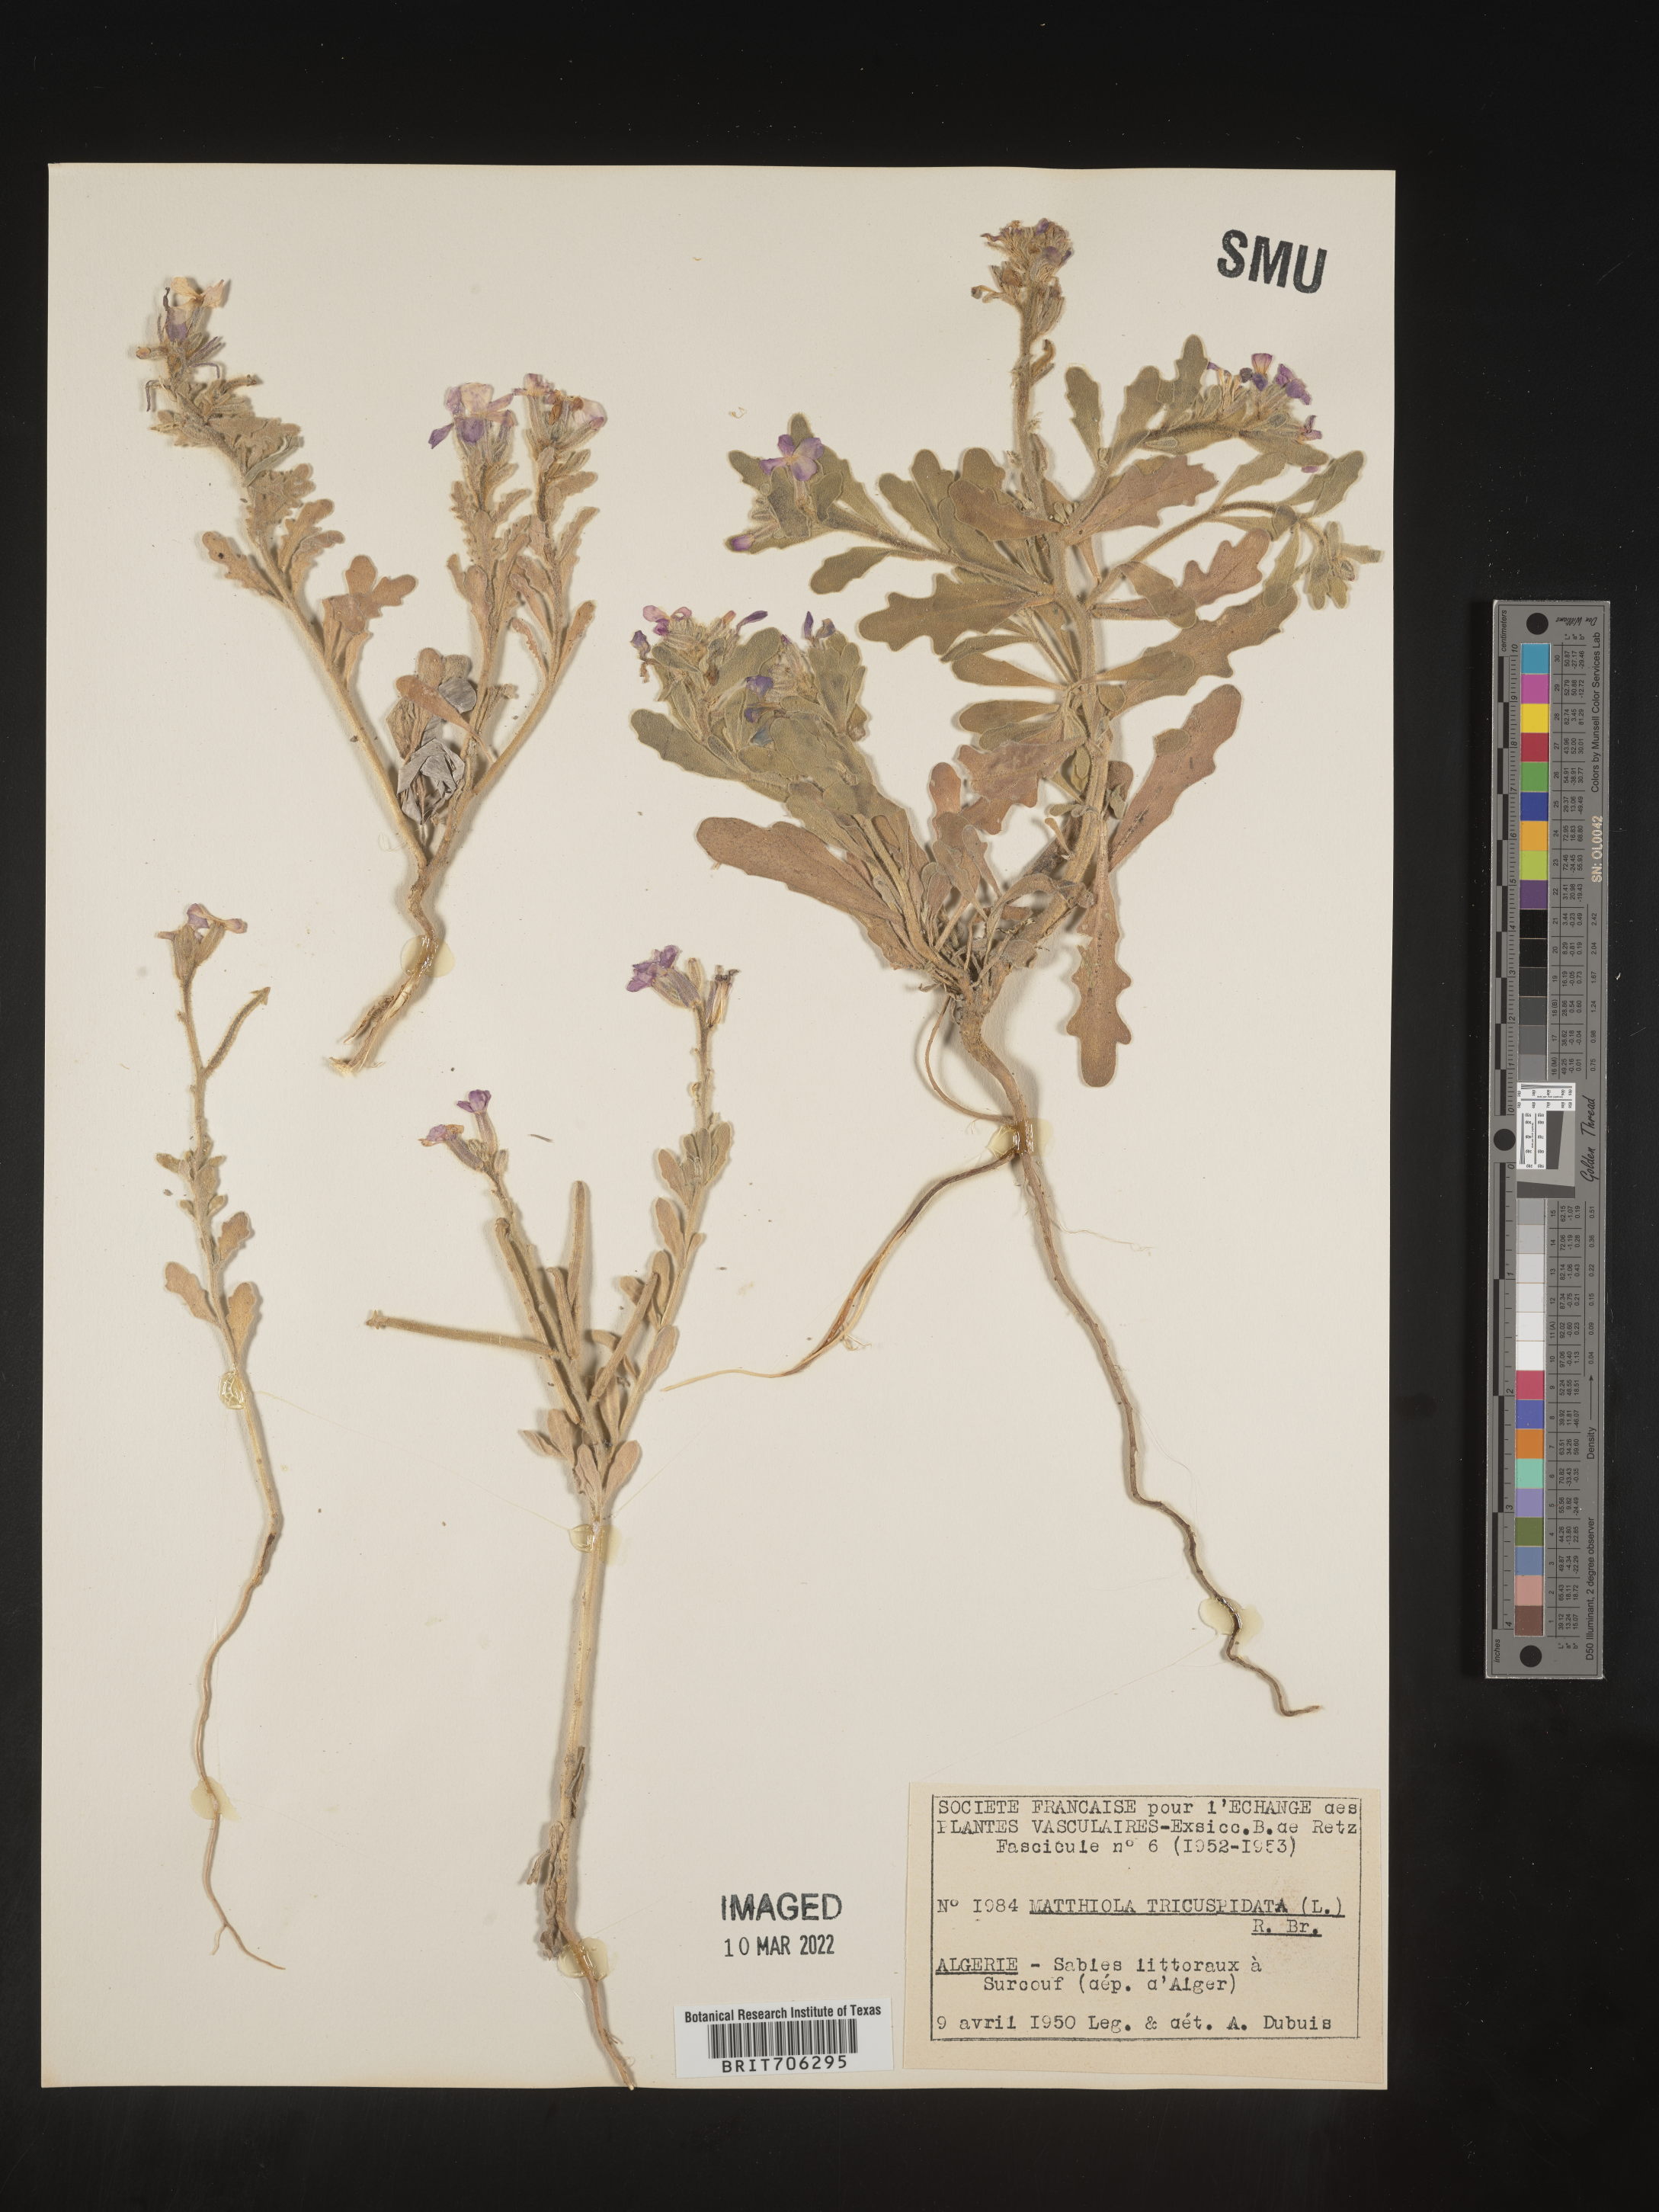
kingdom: Plantae
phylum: Tracheophyta
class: Magnoliopsida
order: Brassicales
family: Brassicaceae
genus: Matthiola
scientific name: Matthiola
